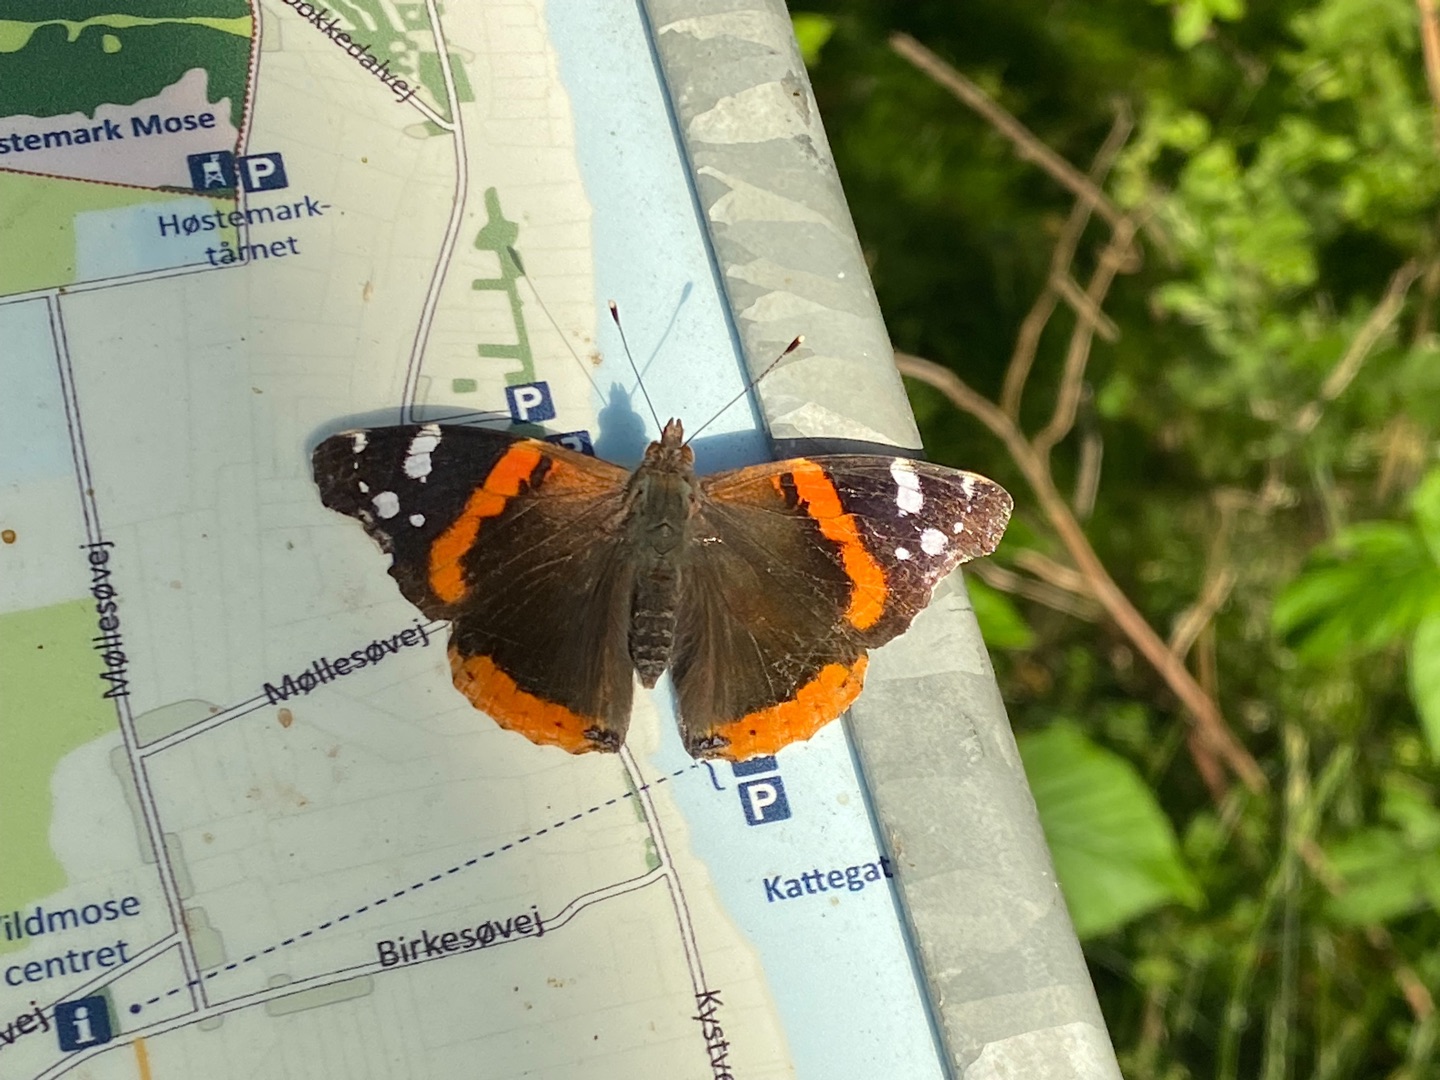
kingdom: Animalia
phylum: Arthropoda
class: Insecta
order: Lepidoptera
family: Nymphalidae
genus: Vanessa
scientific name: Vanessa atalanta
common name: Admiral
